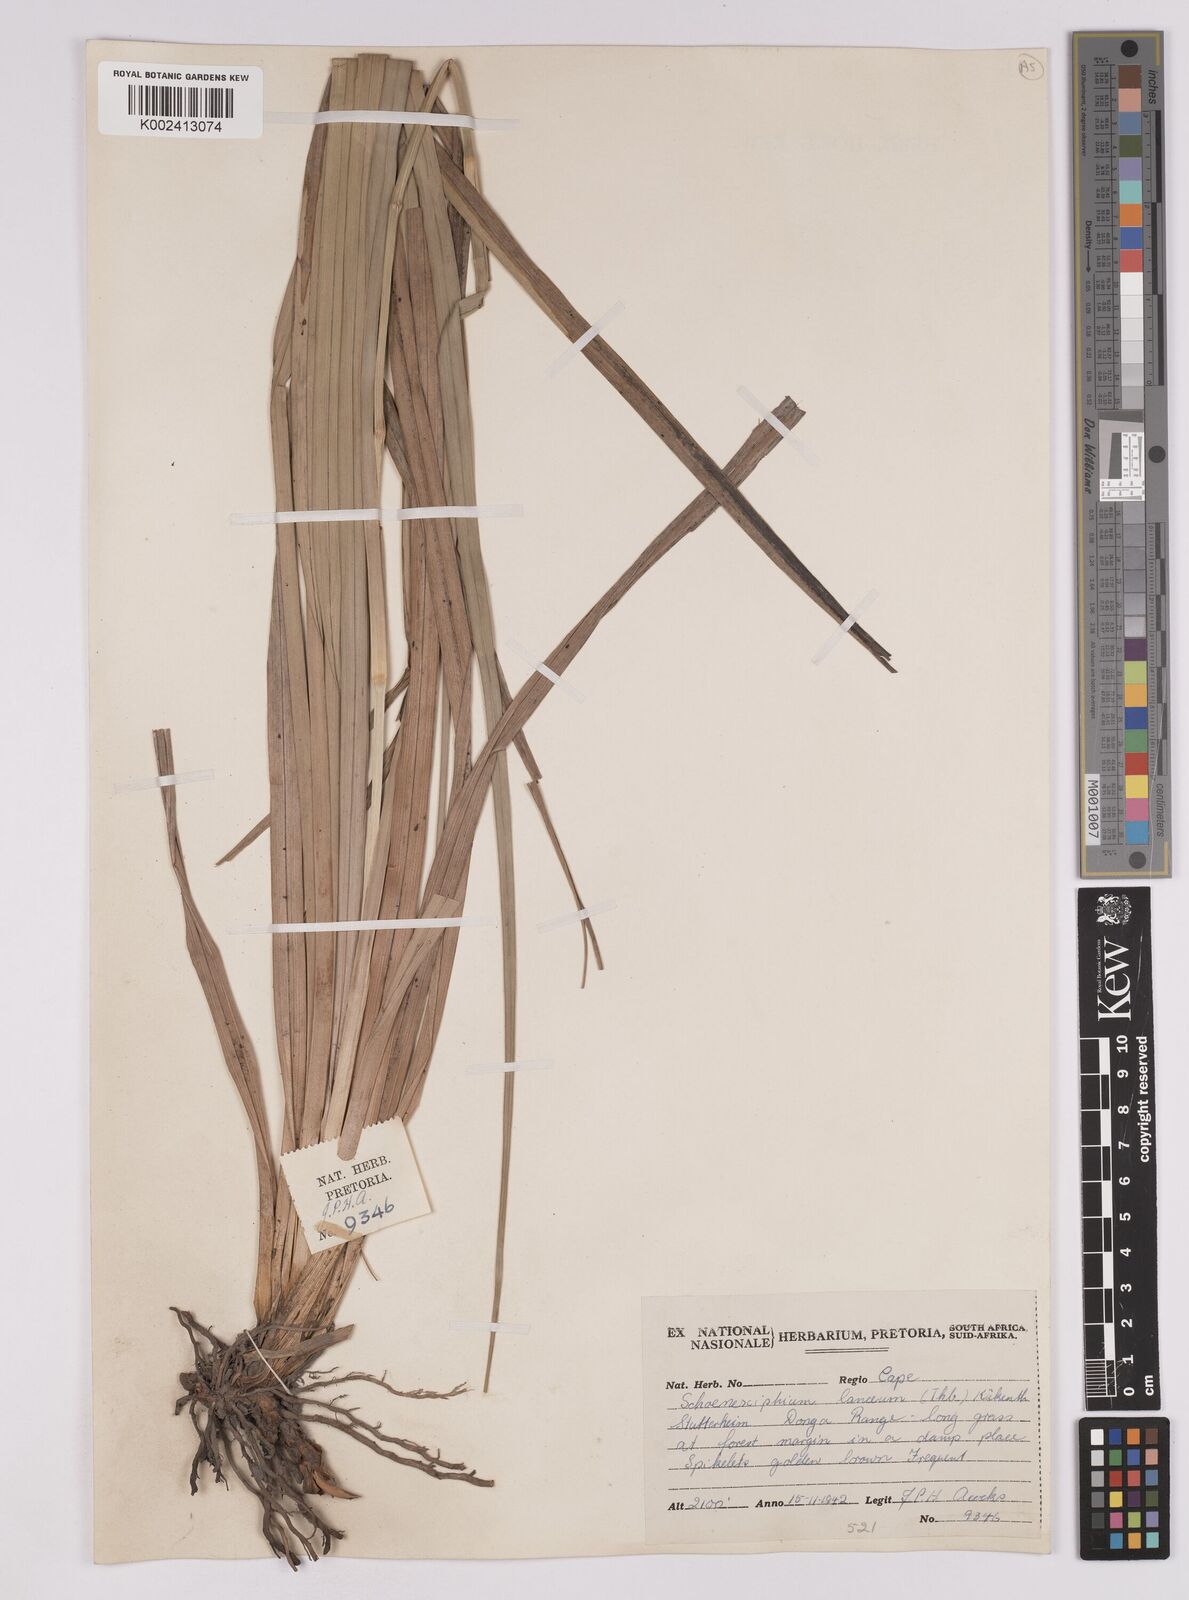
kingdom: Plantae
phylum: Tracheophyta
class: Liliopsida
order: Poales
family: Cyperaceae
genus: Carex
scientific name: Carex lancea
